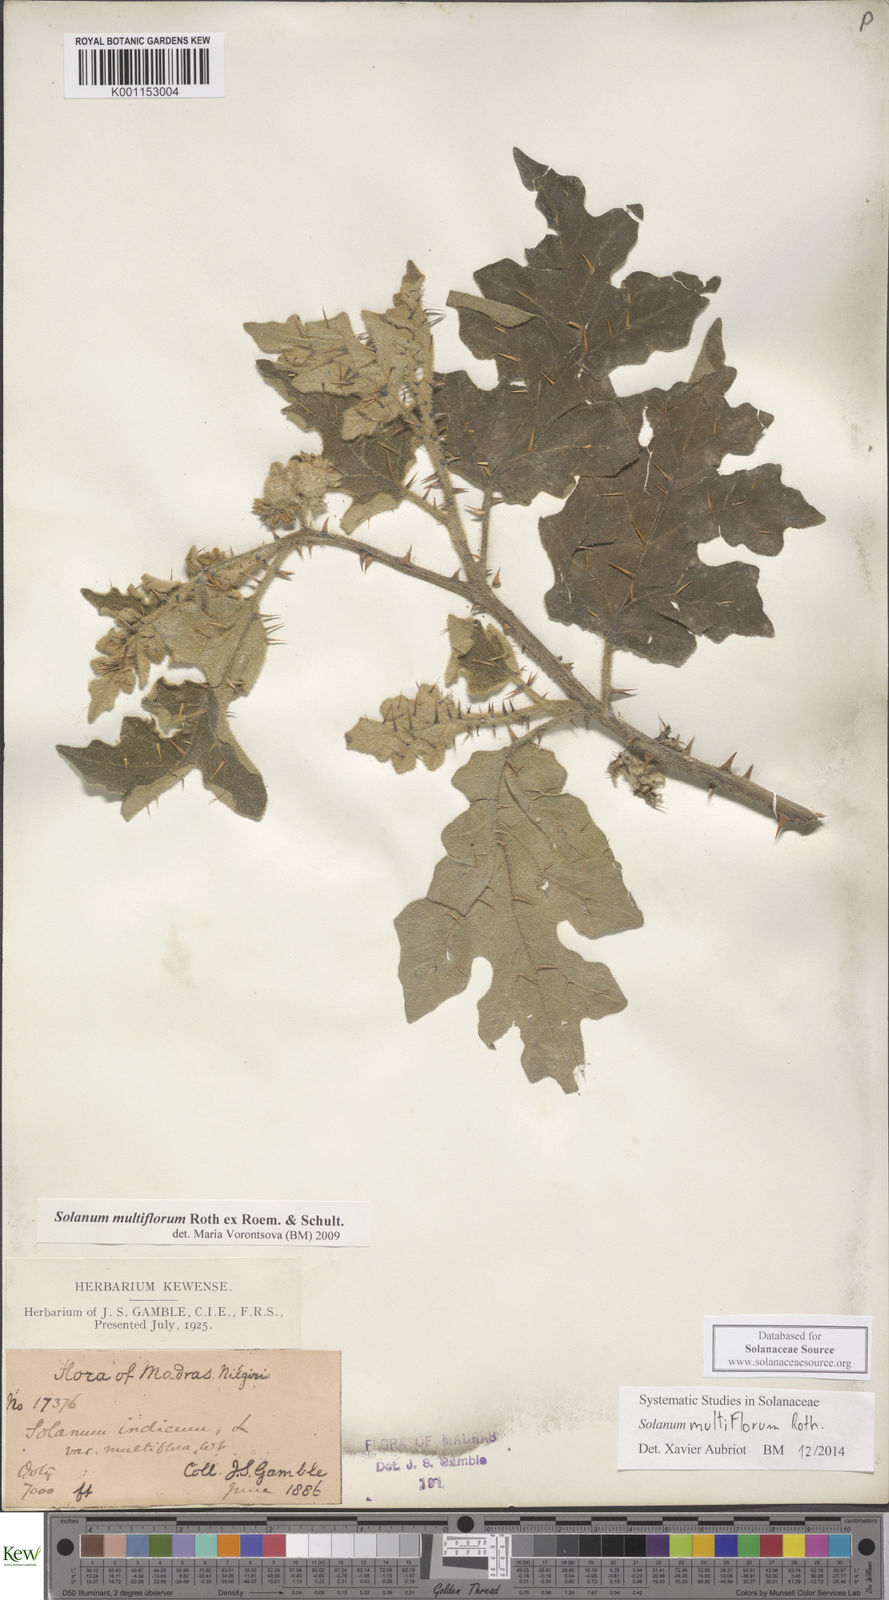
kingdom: Plantae
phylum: Tracheophyta
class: Magnoliopsida
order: Solanales
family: Solanaceae
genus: Solanum
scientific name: Solanum multiflorum
